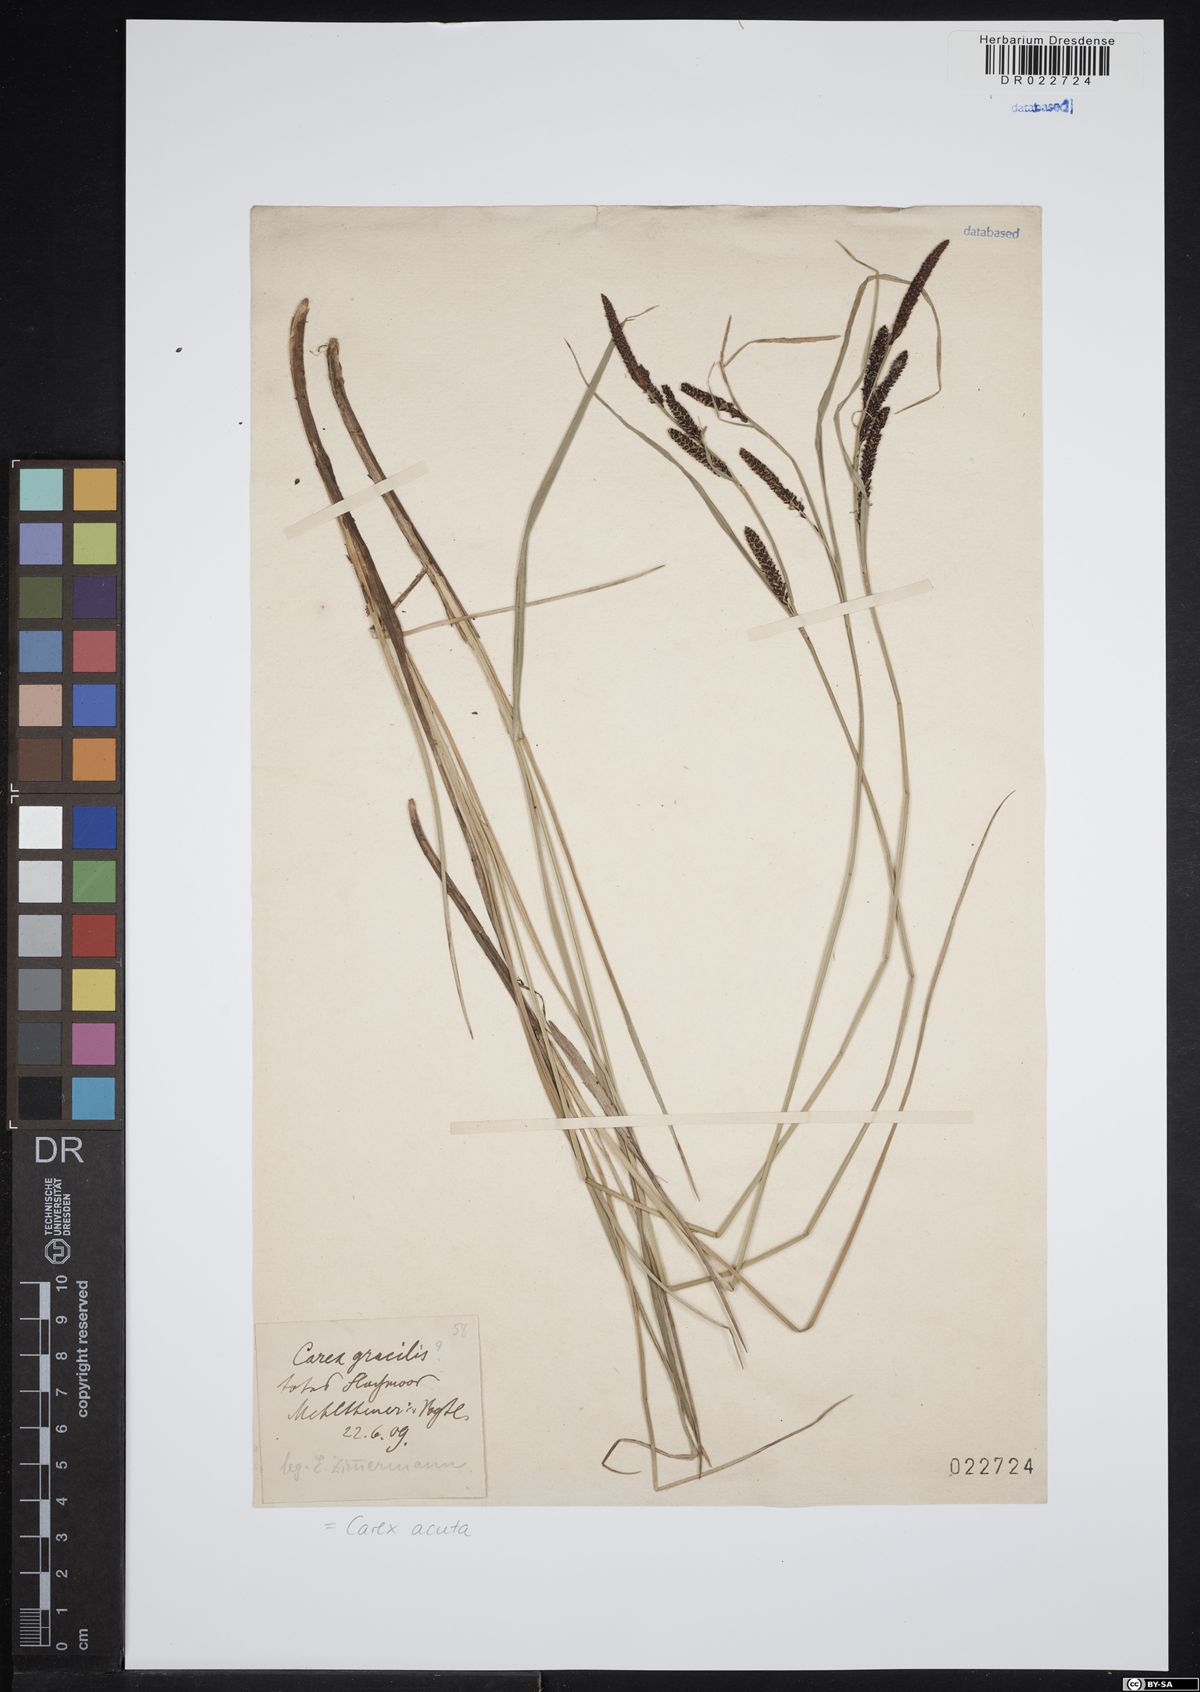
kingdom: Plantae
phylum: Tracheophyta
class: Liliopsida
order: Poales
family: Cyperaceae
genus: Carex
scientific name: Carex acuta
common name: Slender tufted-sedge
